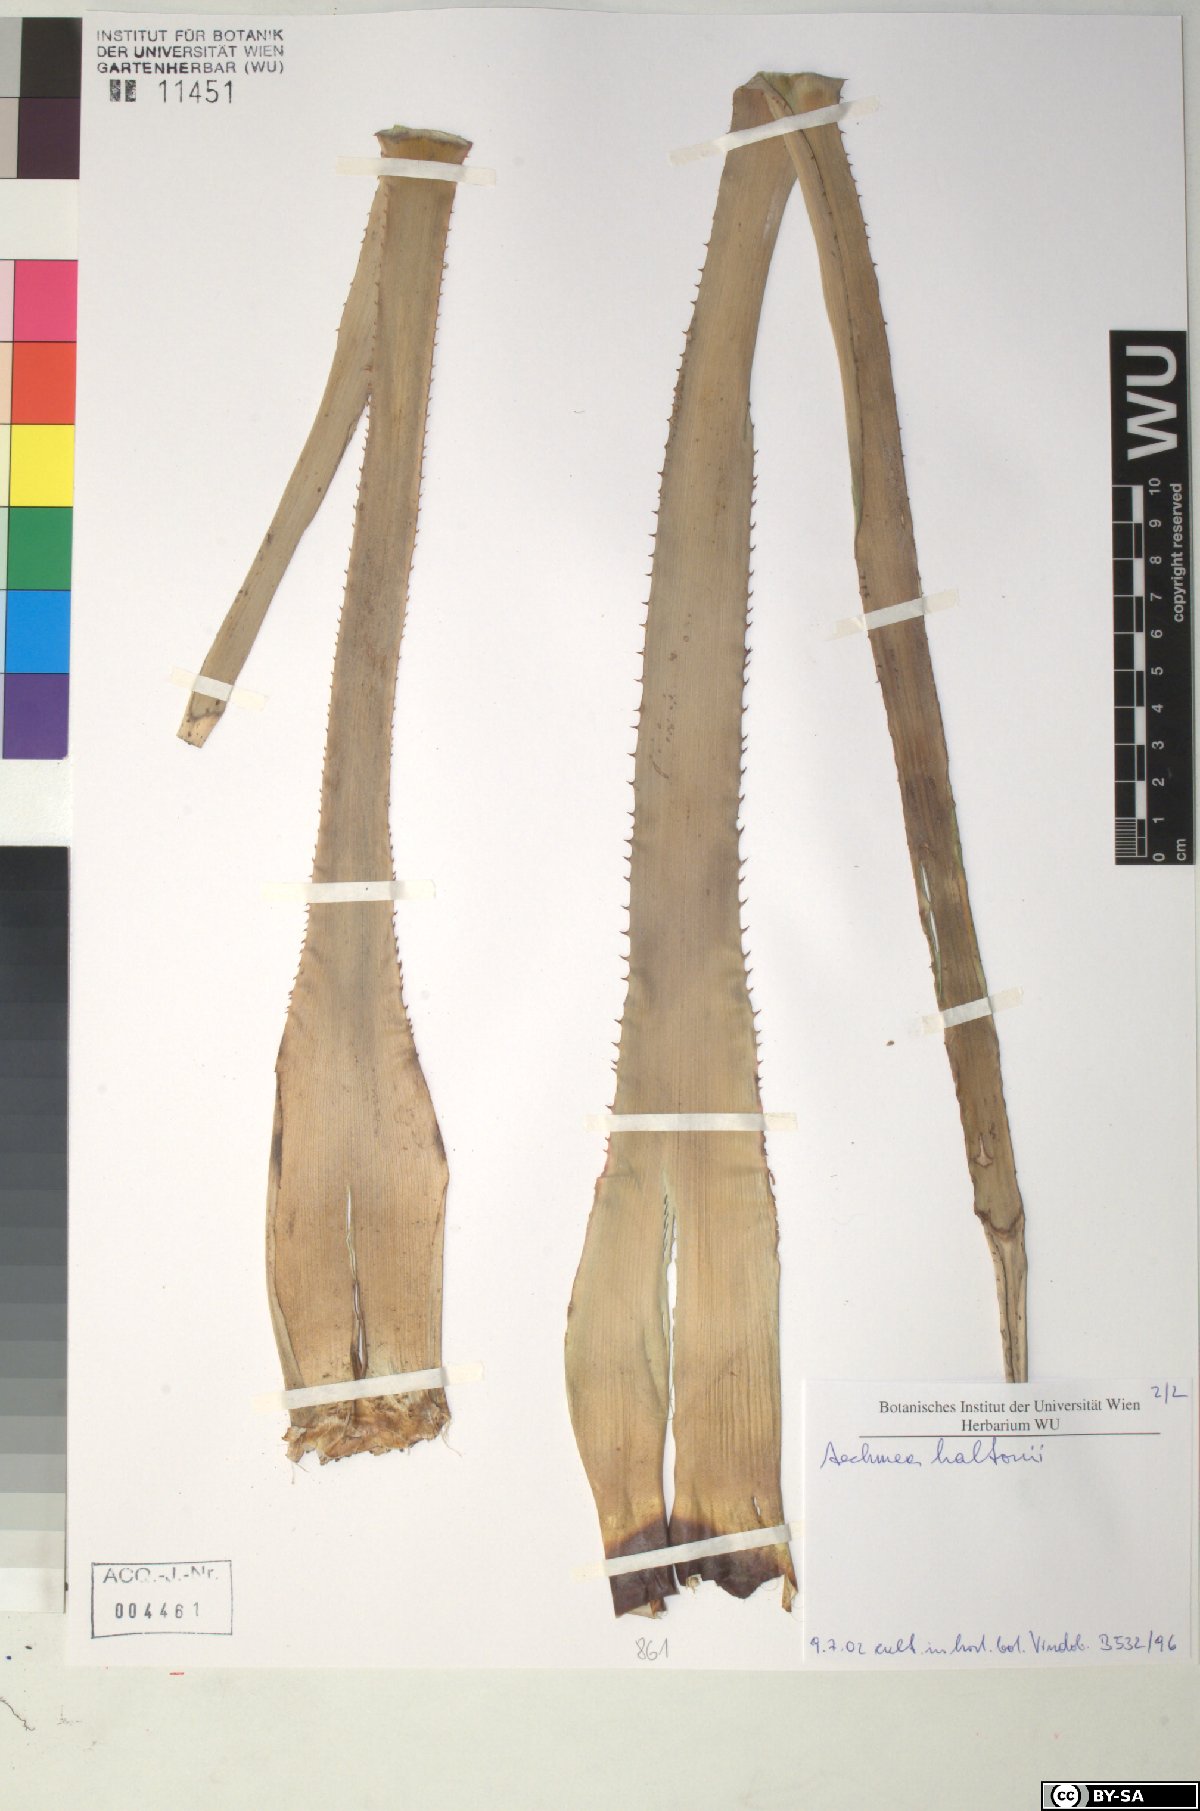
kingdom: Plantae
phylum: Tracheophyta
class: Liliopsida
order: Poales
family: Bromeliaceae
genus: Aechmea
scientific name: Aechmea haltonii
